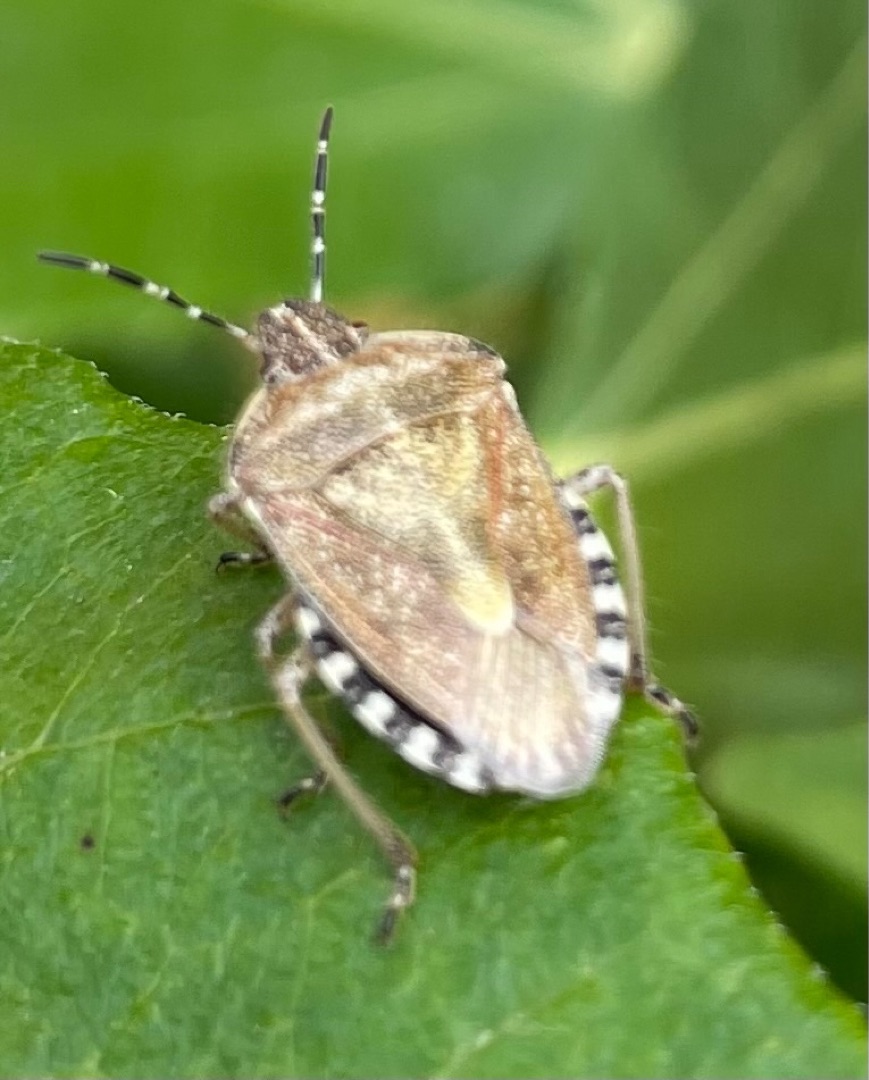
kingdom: Animalia
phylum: Arthropoda
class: Insecta
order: Hemiptera
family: Pentatomidae
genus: Dolycoris
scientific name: Dolycoris baccarum
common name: Almindelig bærtæge
